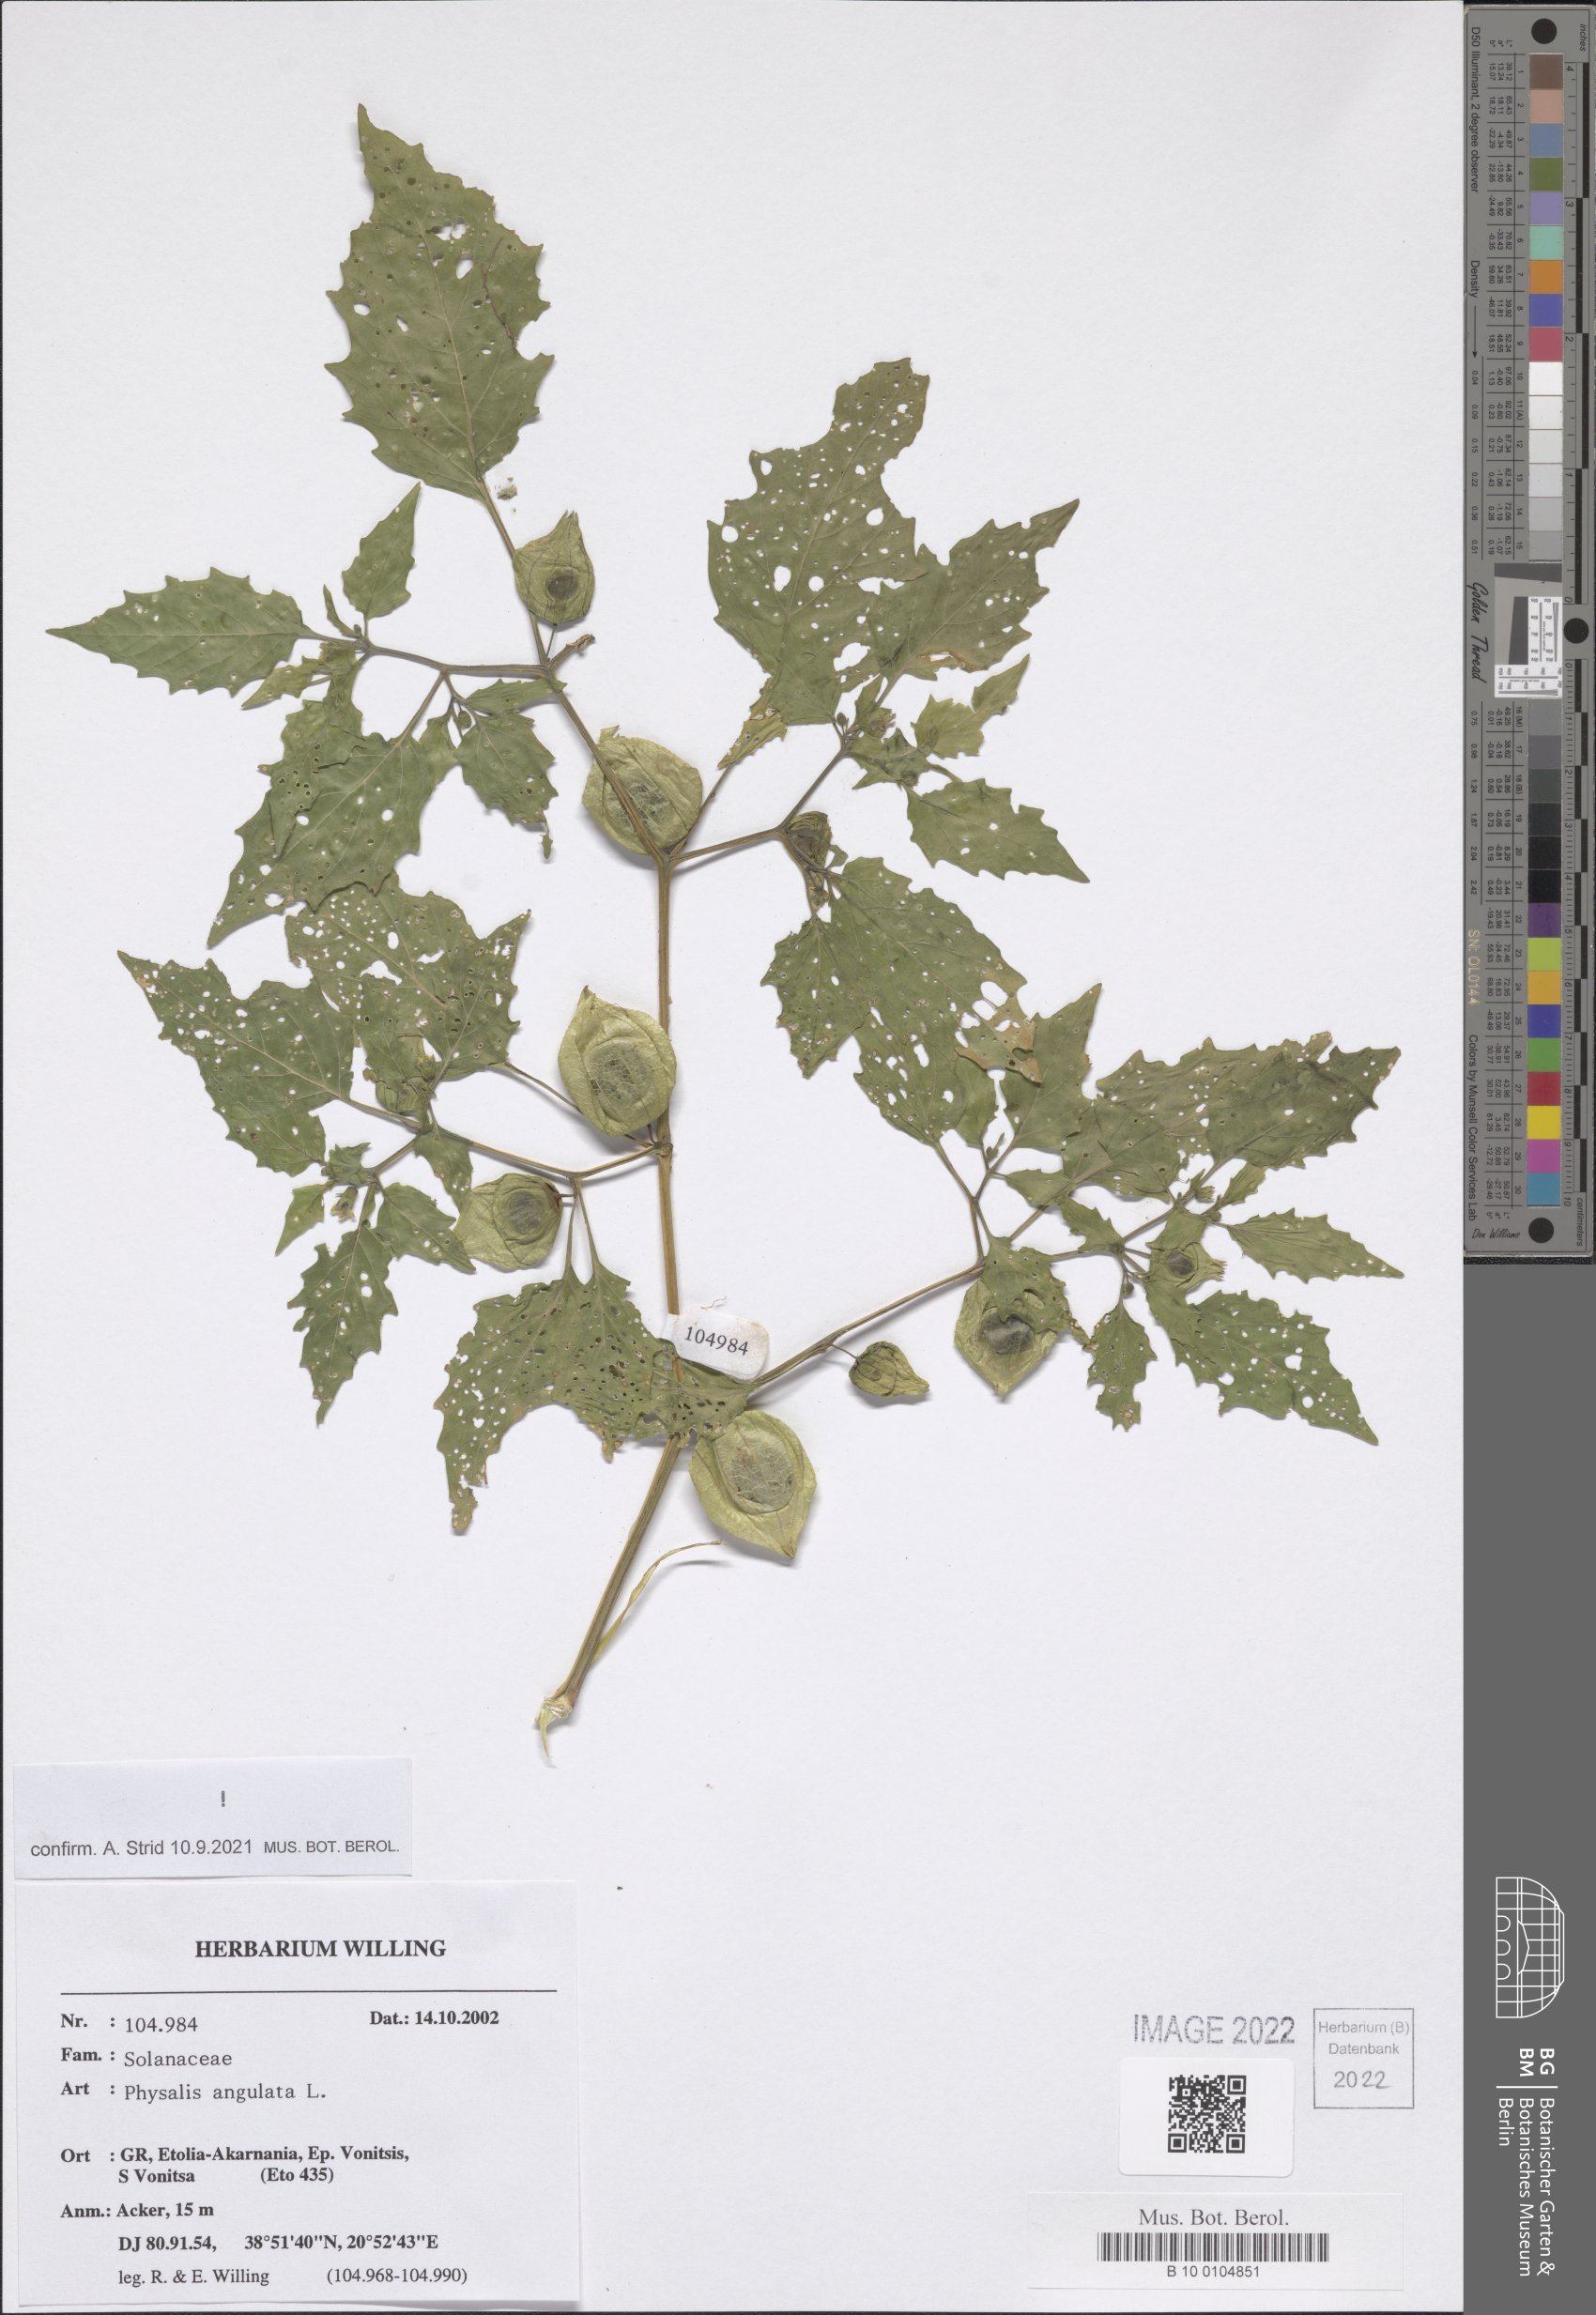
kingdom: Plantae
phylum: Tracheophyta
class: Magnoliopsida
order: Solanales
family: Solanaceae
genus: Physalis
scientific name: Physalis angulata
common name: Angular winter-cherry
